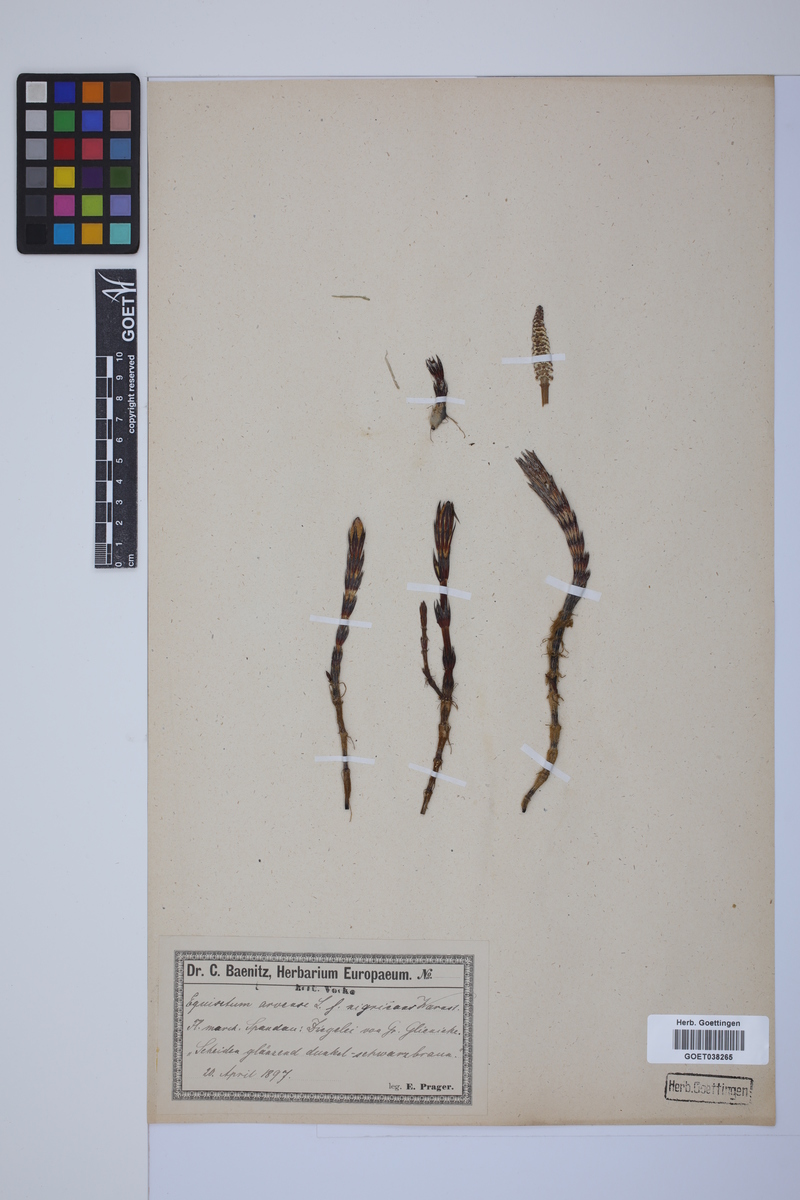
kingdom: Plantae
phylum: Tracheophyta
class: Polypodiopsida
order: Equisetales
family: Equisetaceae
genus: Equisetum
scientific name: Equisetum arvense
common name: Field horsetail
